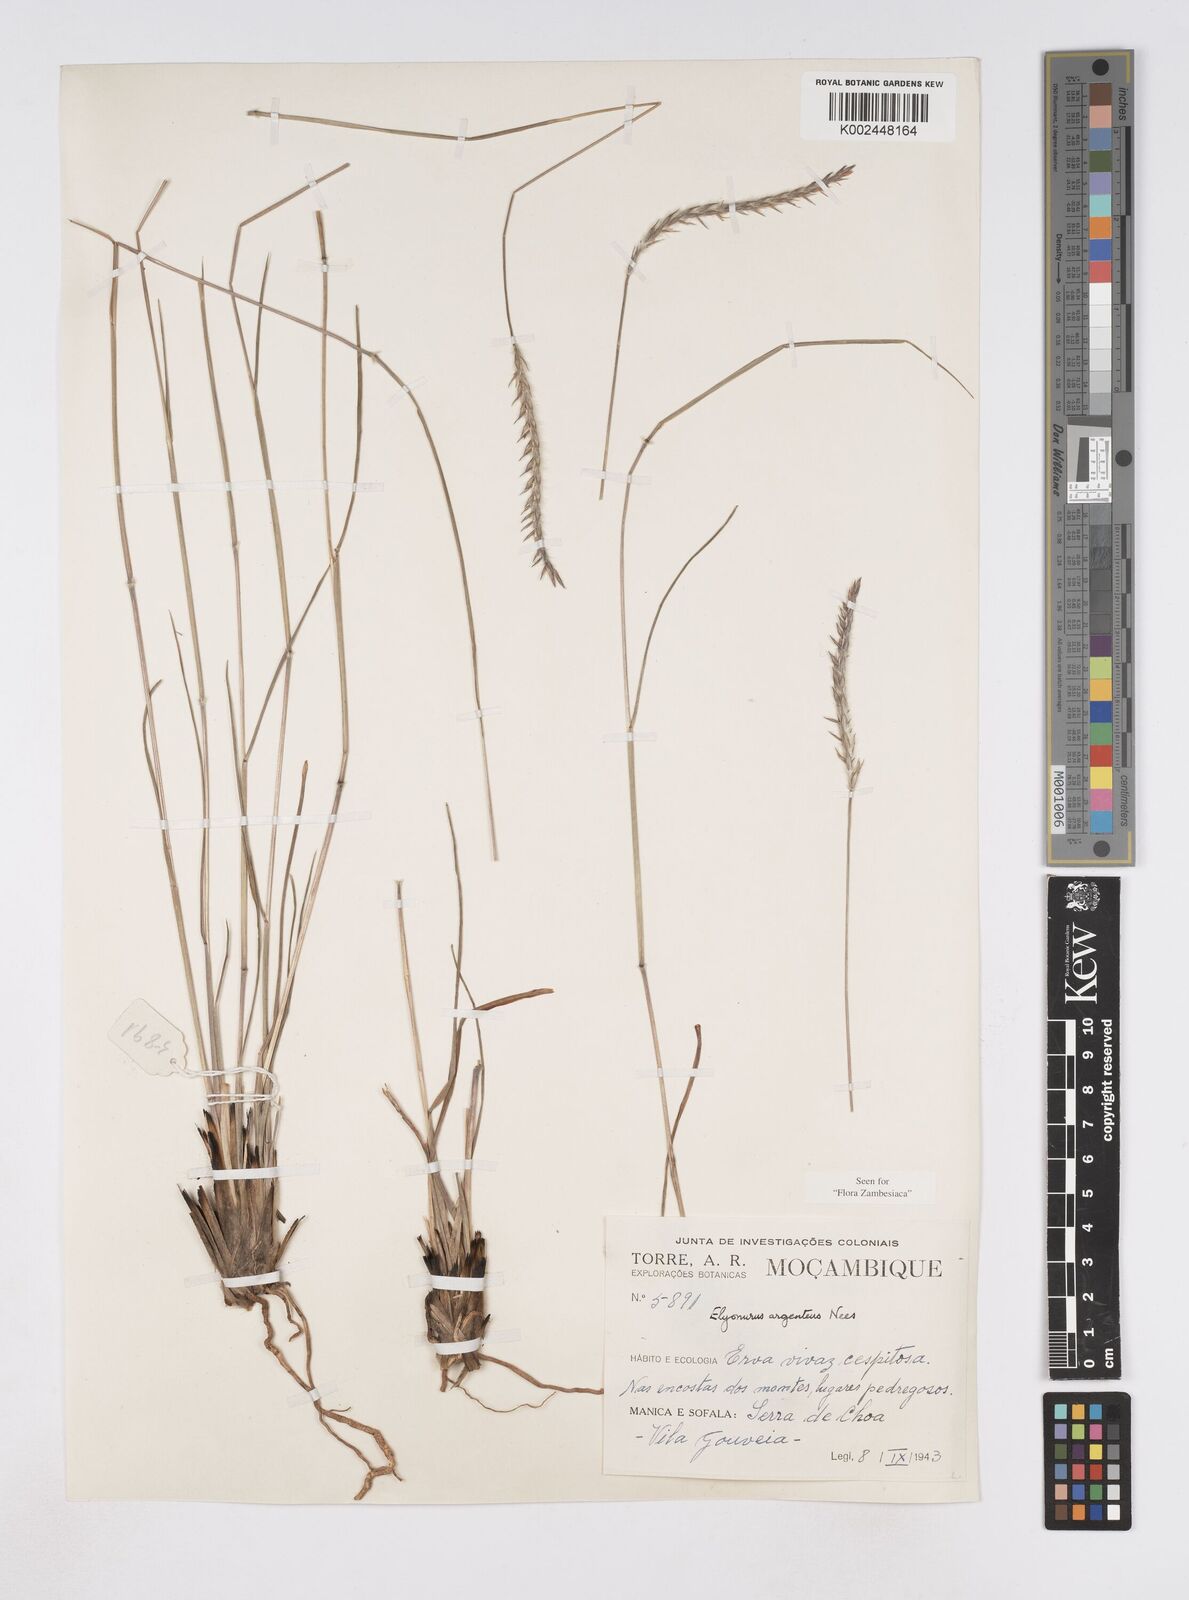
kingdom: Plantae
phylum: Tracheophyta
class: Liliopsida
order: Poales
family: Poaceae
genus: Elionurus
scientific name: Elionurus muticus
